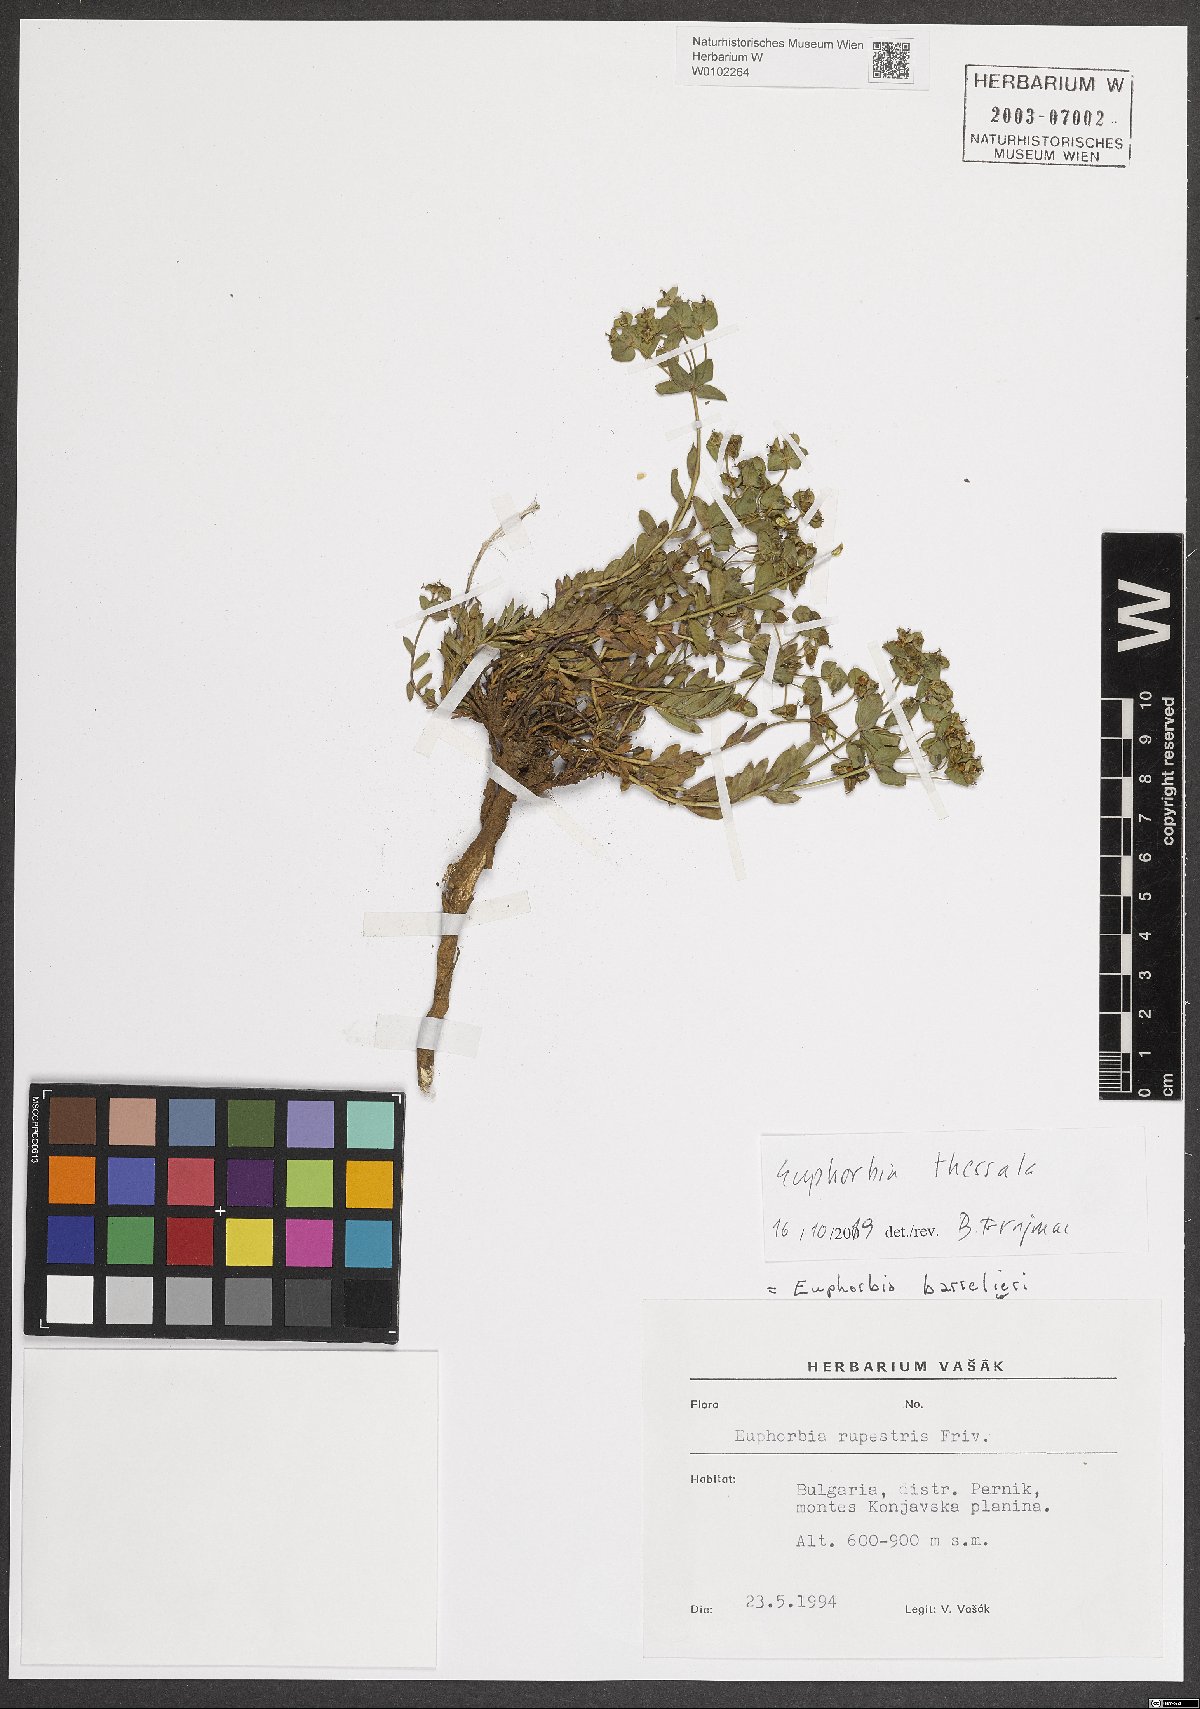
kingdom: Plantae
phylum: Tracheophyta
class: Magnoliopsida
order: Malpighiales
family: Euphorbiaceae
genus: Euphorbia
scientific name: Euphorbia barrelieri
